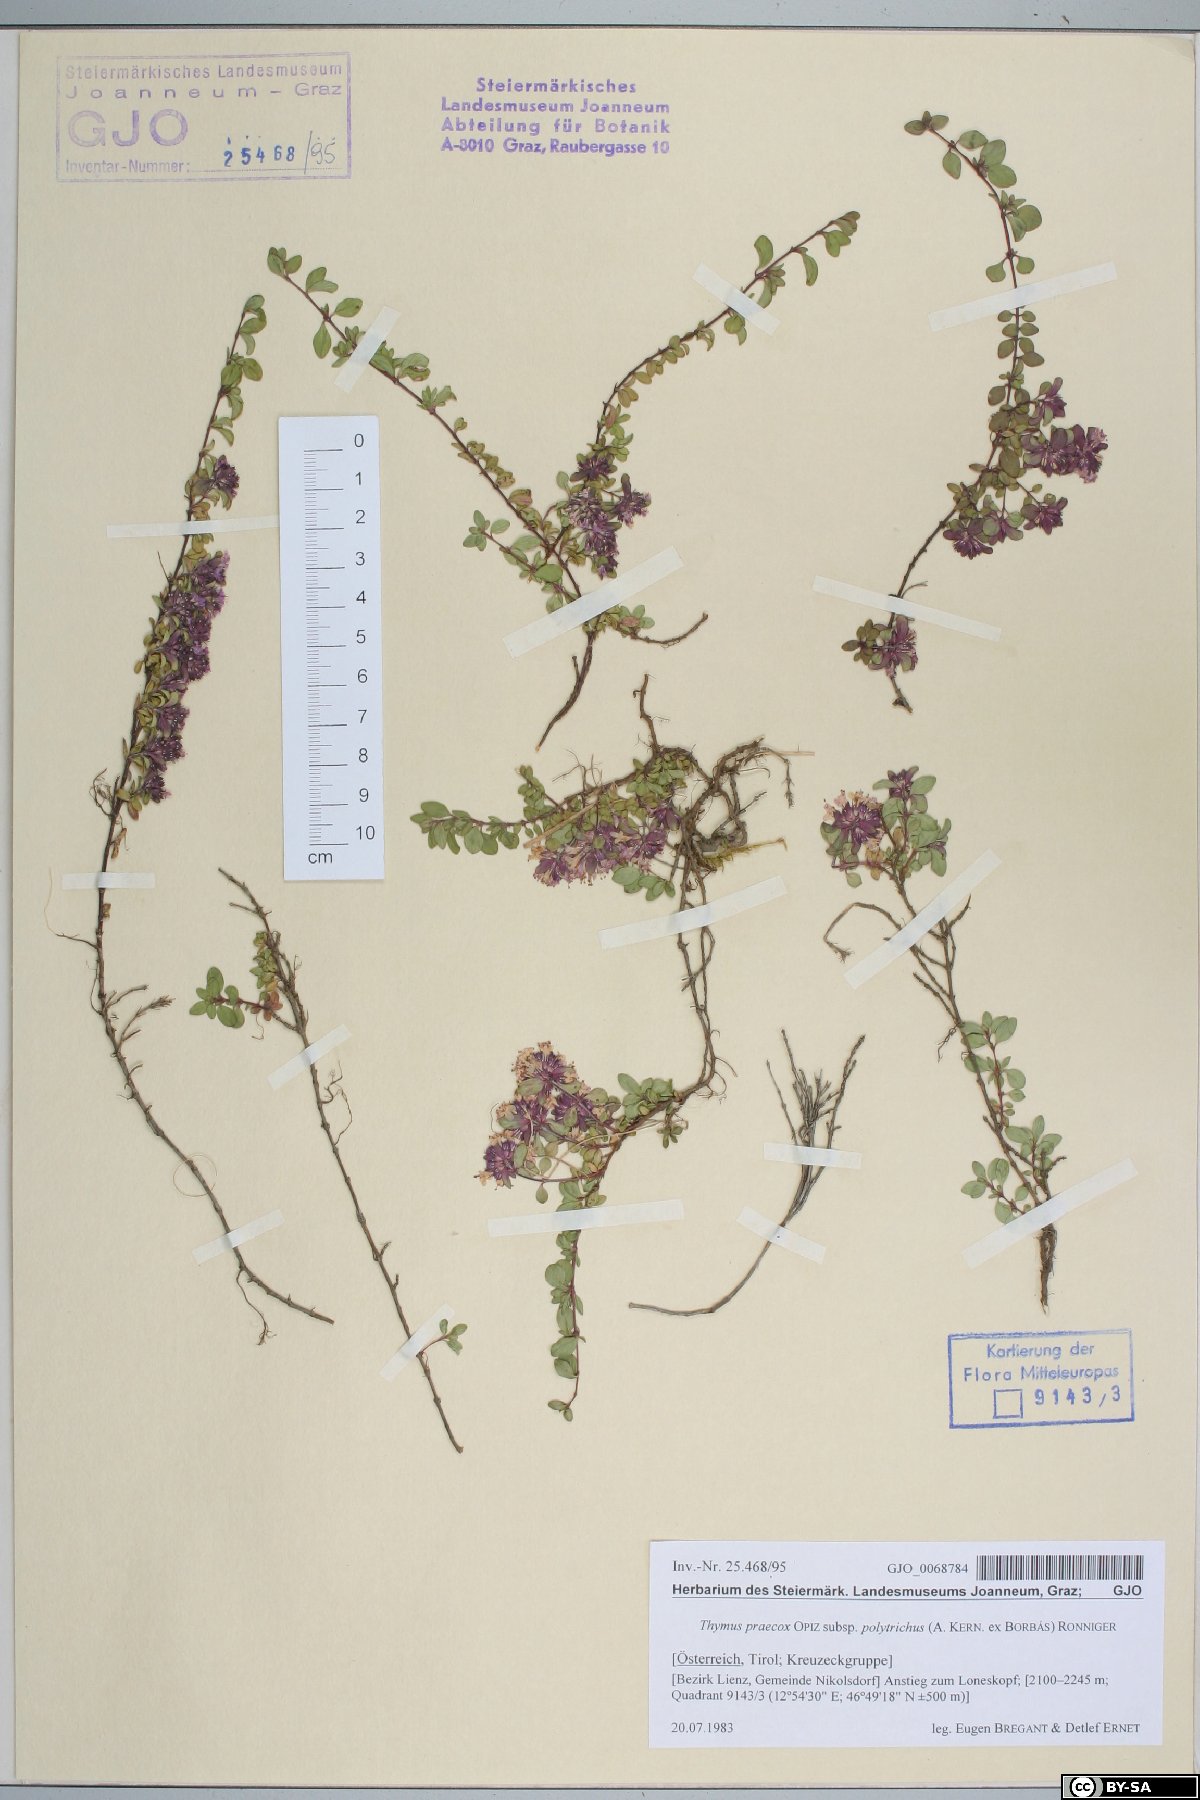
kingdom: Plantae
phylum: Tracheophyta
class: Magnoliopsida
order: Lamiales
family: Lamiaceae
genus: Thymus
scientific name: Thymus praecox
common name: Wild thyme
